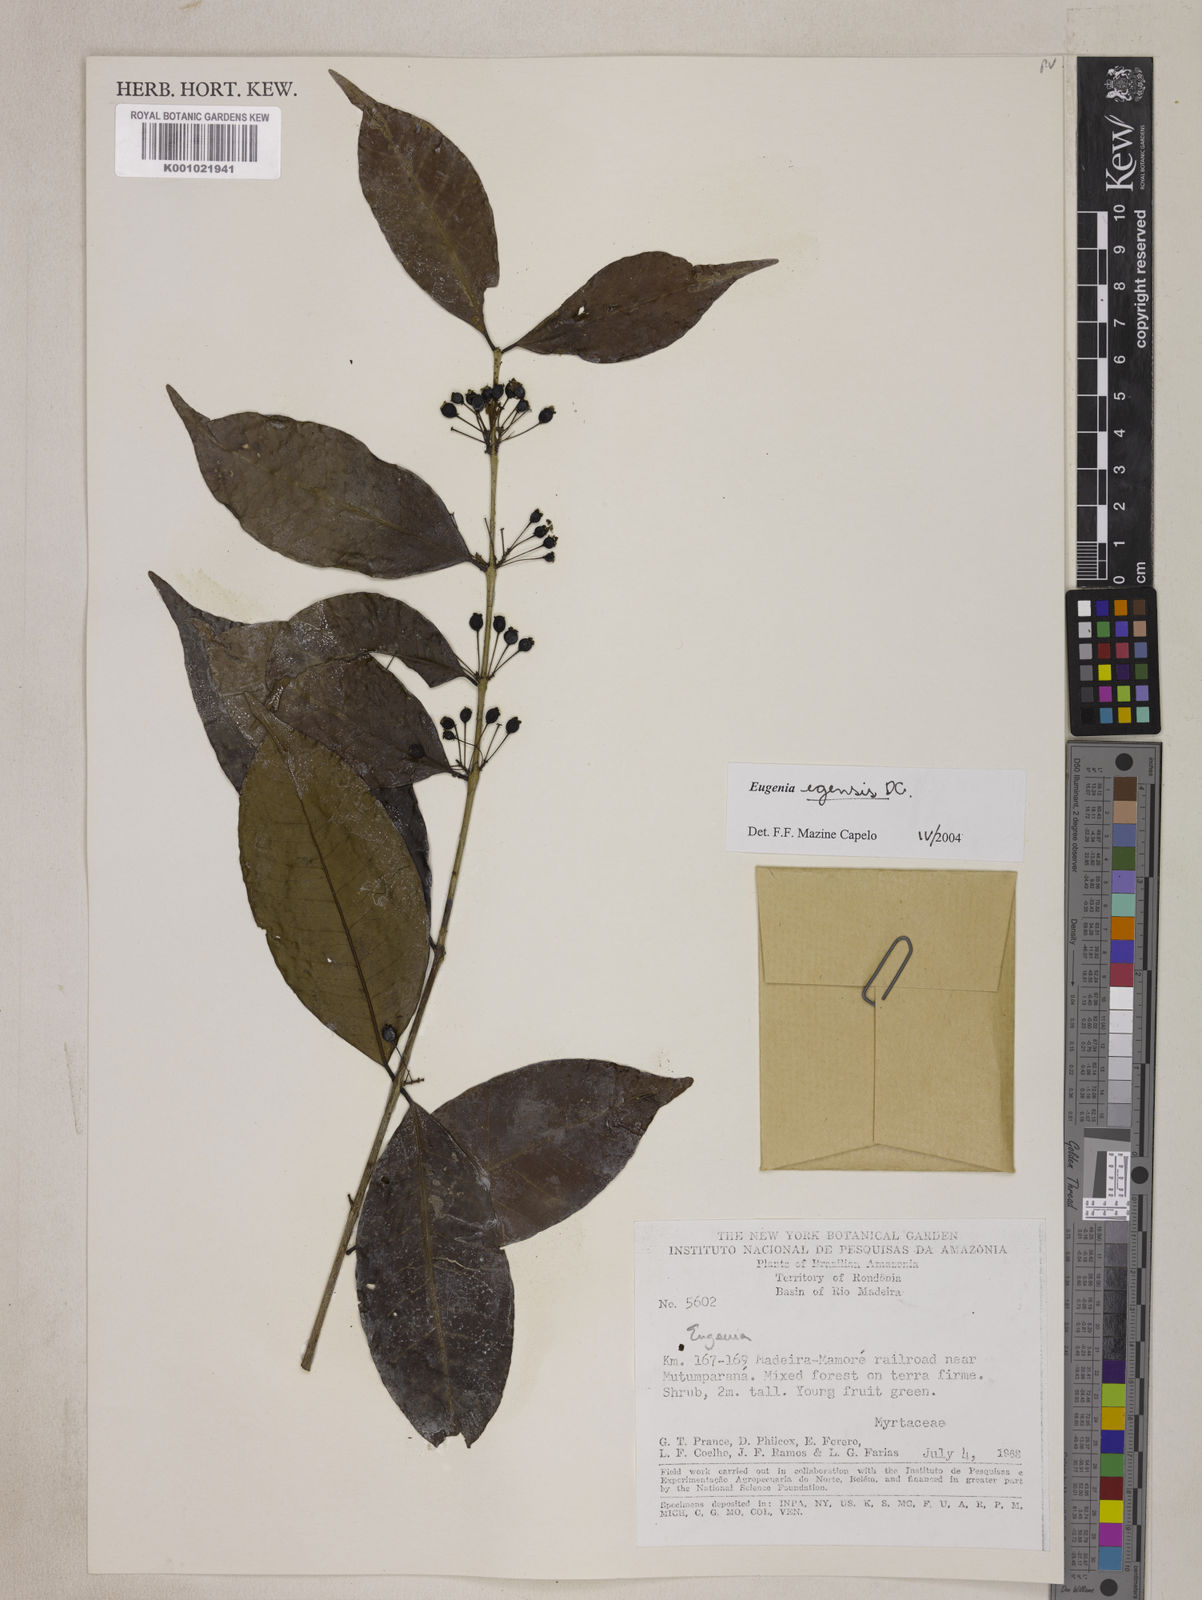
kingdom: Plantae
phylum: Tracheophyta
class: Magnoliopsida
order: Myrtales
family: Myrtaceae
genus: Eugenia
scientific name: Eugenia egensis
